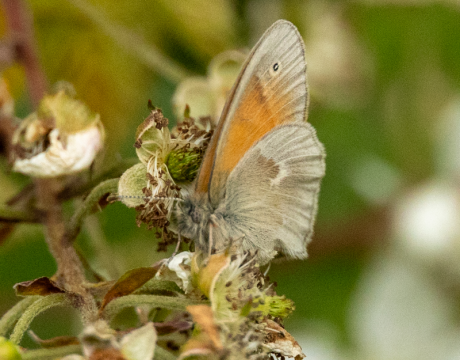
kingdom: Animalia
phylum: Arthropoda
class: Insecta
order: Lepidoptera
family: Nymphalidae
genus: Coenonympha
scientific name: Coenonympha tullia
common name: Large Heath
